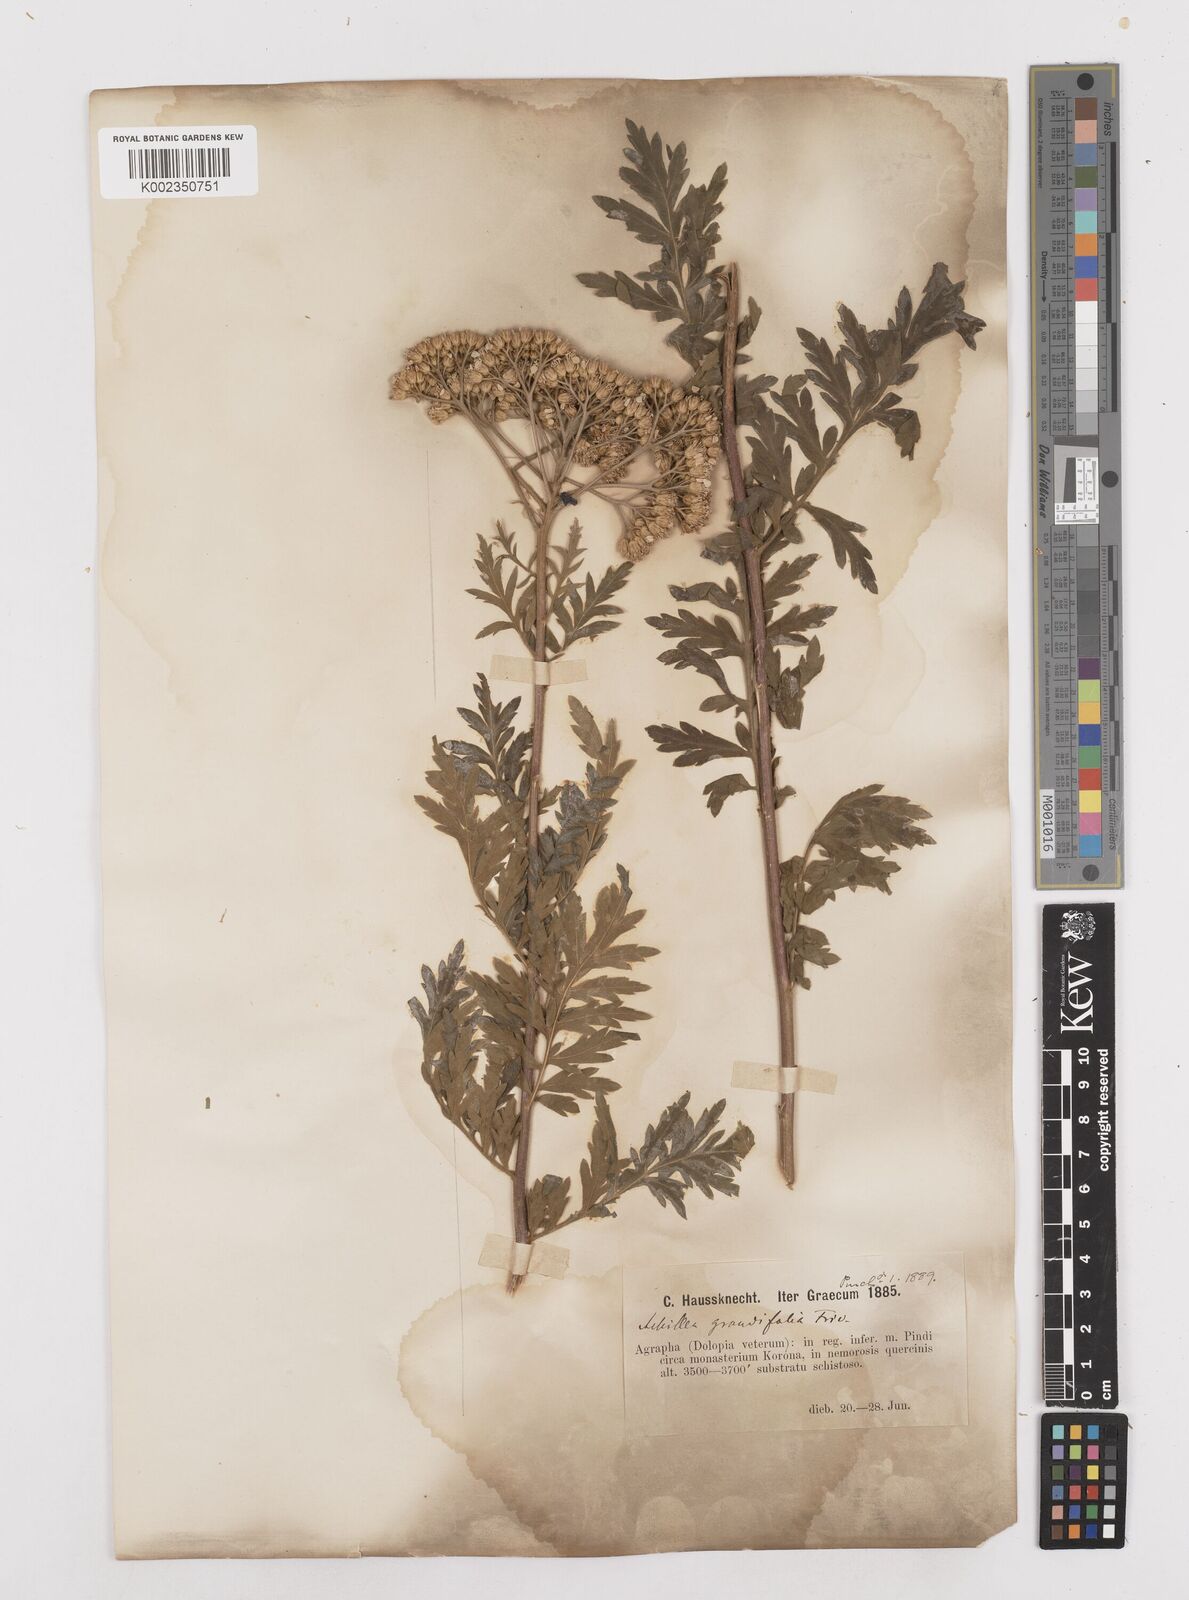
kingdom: Plantae
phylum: Tracheophyta
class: Magnoliopsida
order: Asterales
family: Asteraceae
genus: Achillea
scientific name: Achillea grandifolia
